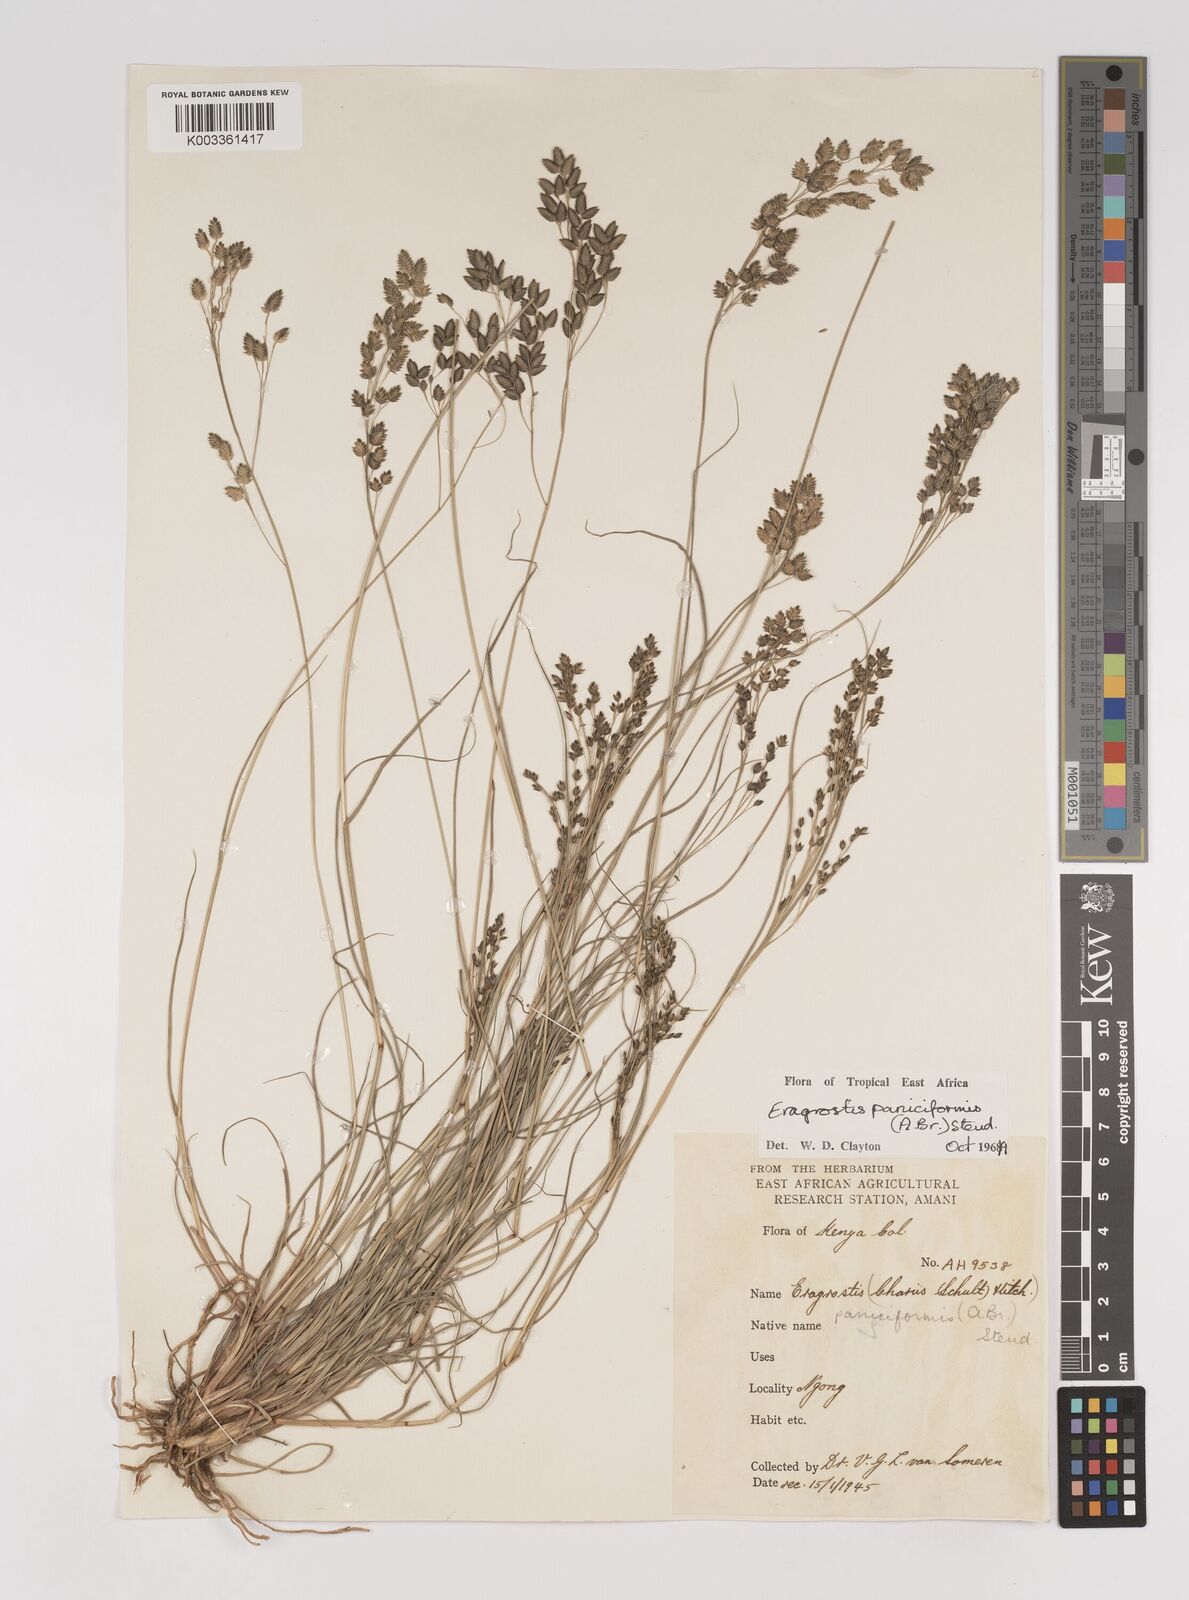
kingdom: Plantae
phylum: Tracheophyta
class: Liliopsida
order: Poales
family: Poaceae
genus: Eragrostis
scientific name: Eragrostis paniciformis
